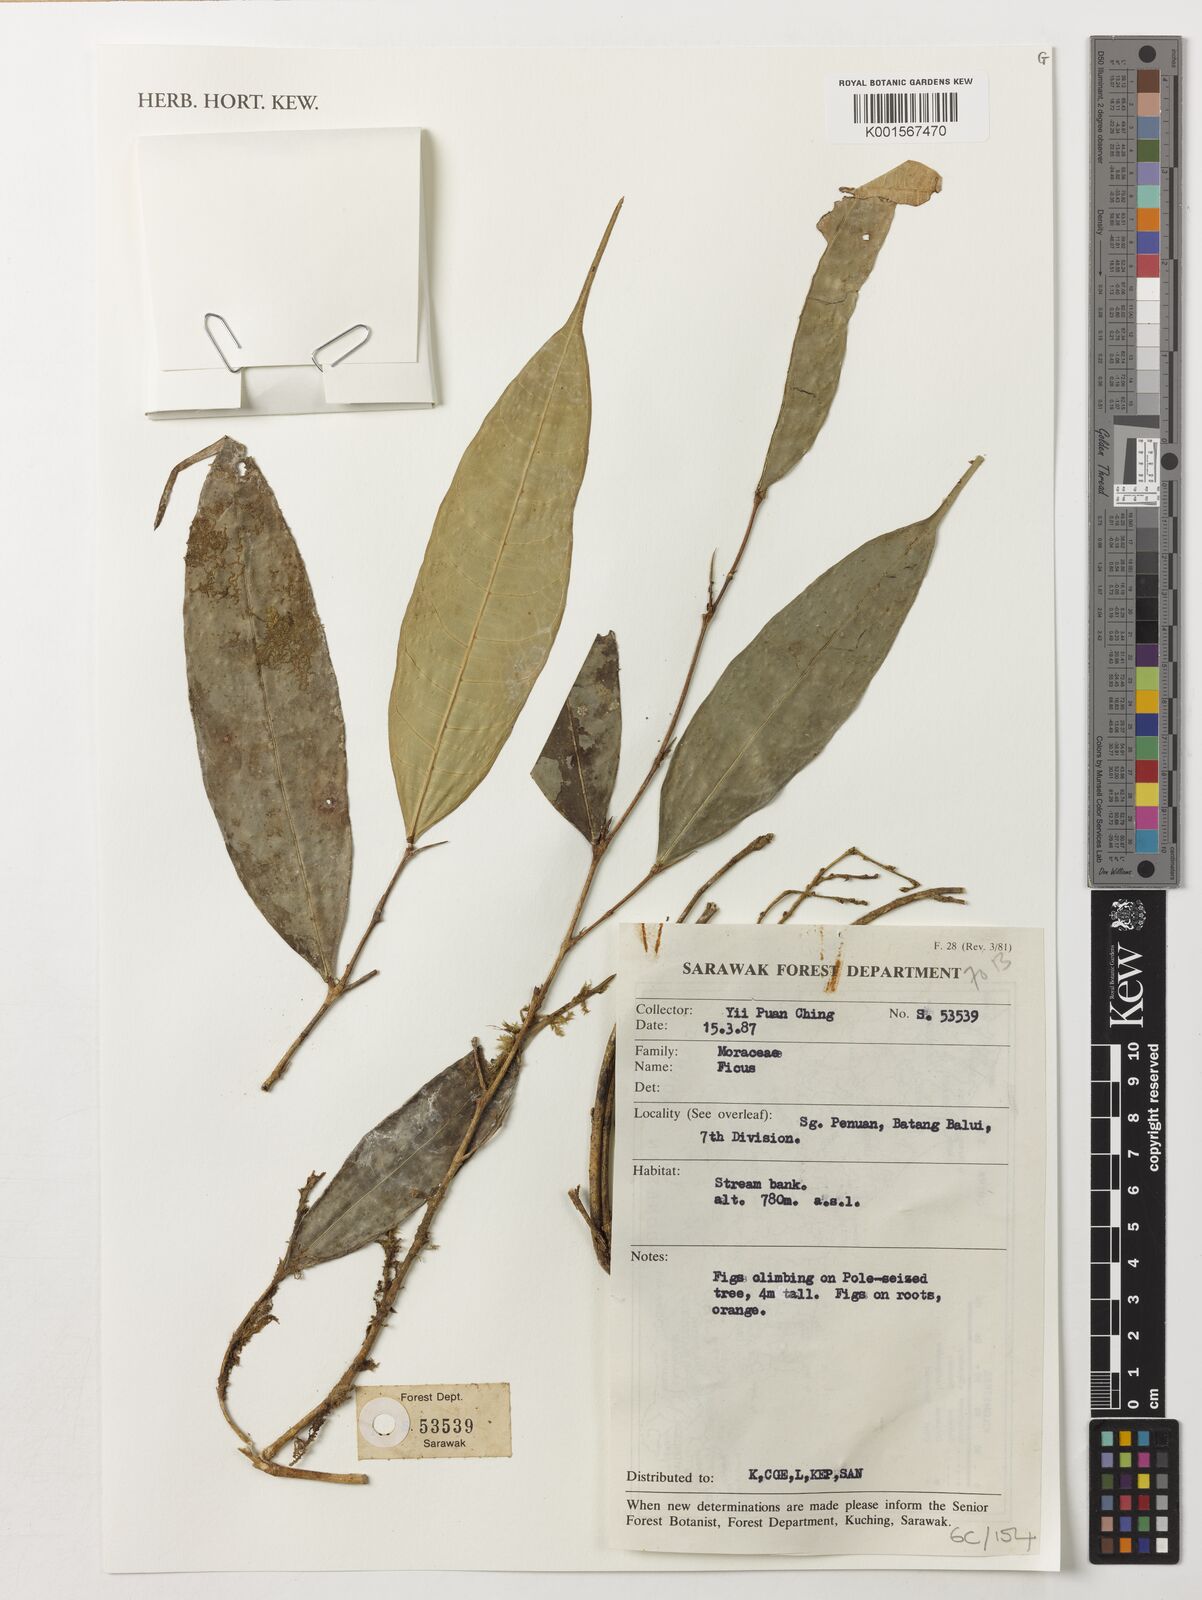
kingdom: Plantae
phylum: Tracheophyta
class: Magnoliopsida
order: Rosales
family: Moraceae
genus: Ficus
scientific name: Ficus
